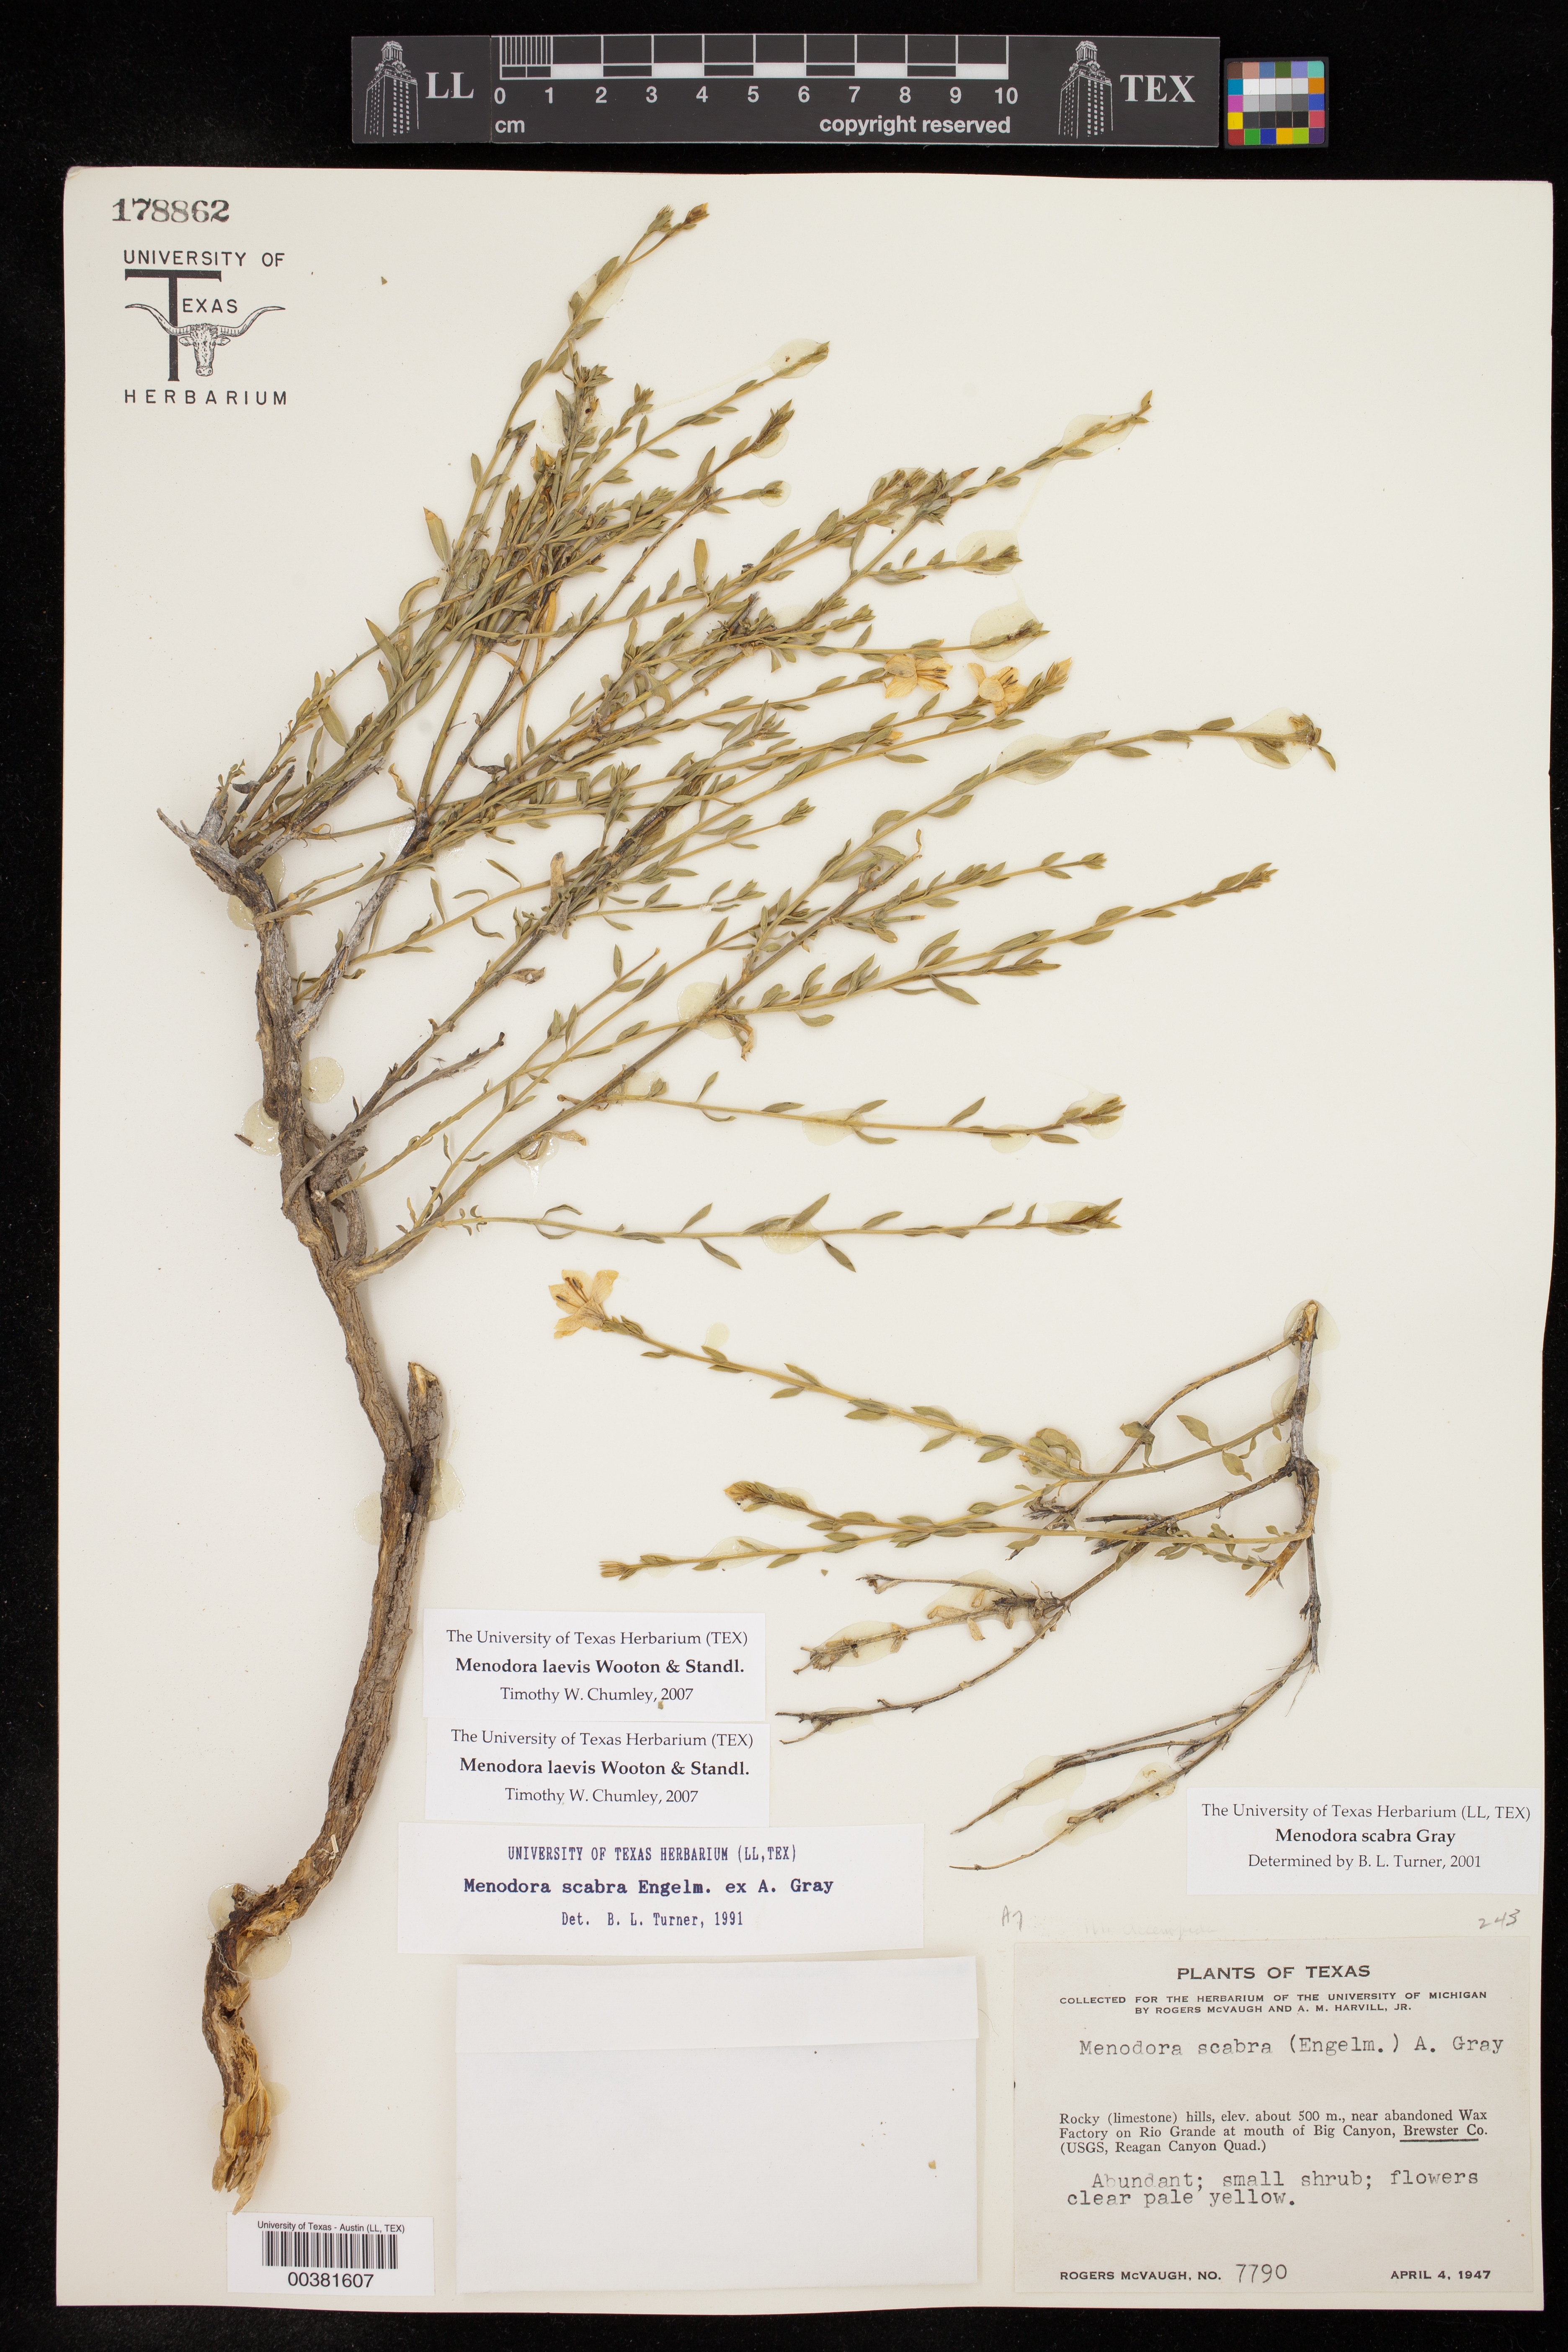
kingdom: Plantae
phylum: Tracheophyta
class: Magnoliopsida
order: Lamiales
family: Oleaceae
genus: Menodora
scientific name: Menodora scabra
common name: Rough menodora
